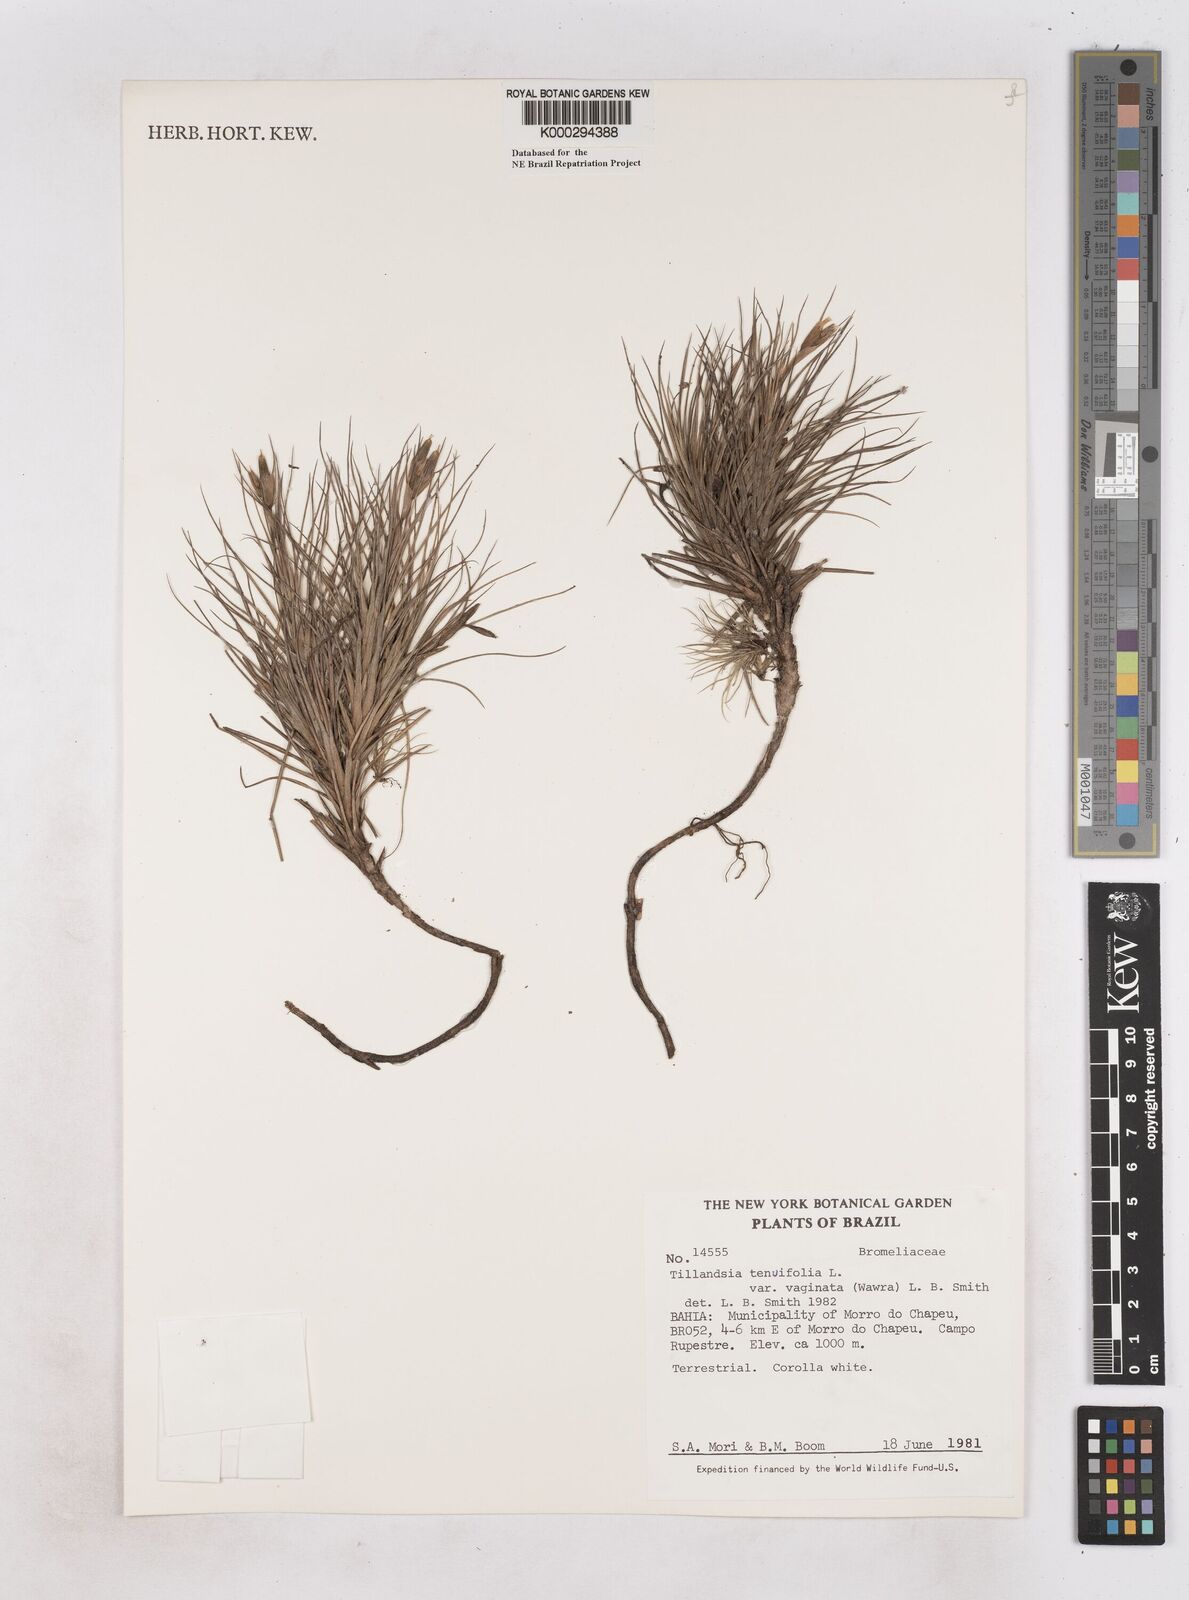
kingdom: Plantae
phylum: Tracheophyta
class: Liliopsida
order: Poales
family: Bromeliaceae
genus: Tillandsia
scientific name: Tillandsia tenuifolia
